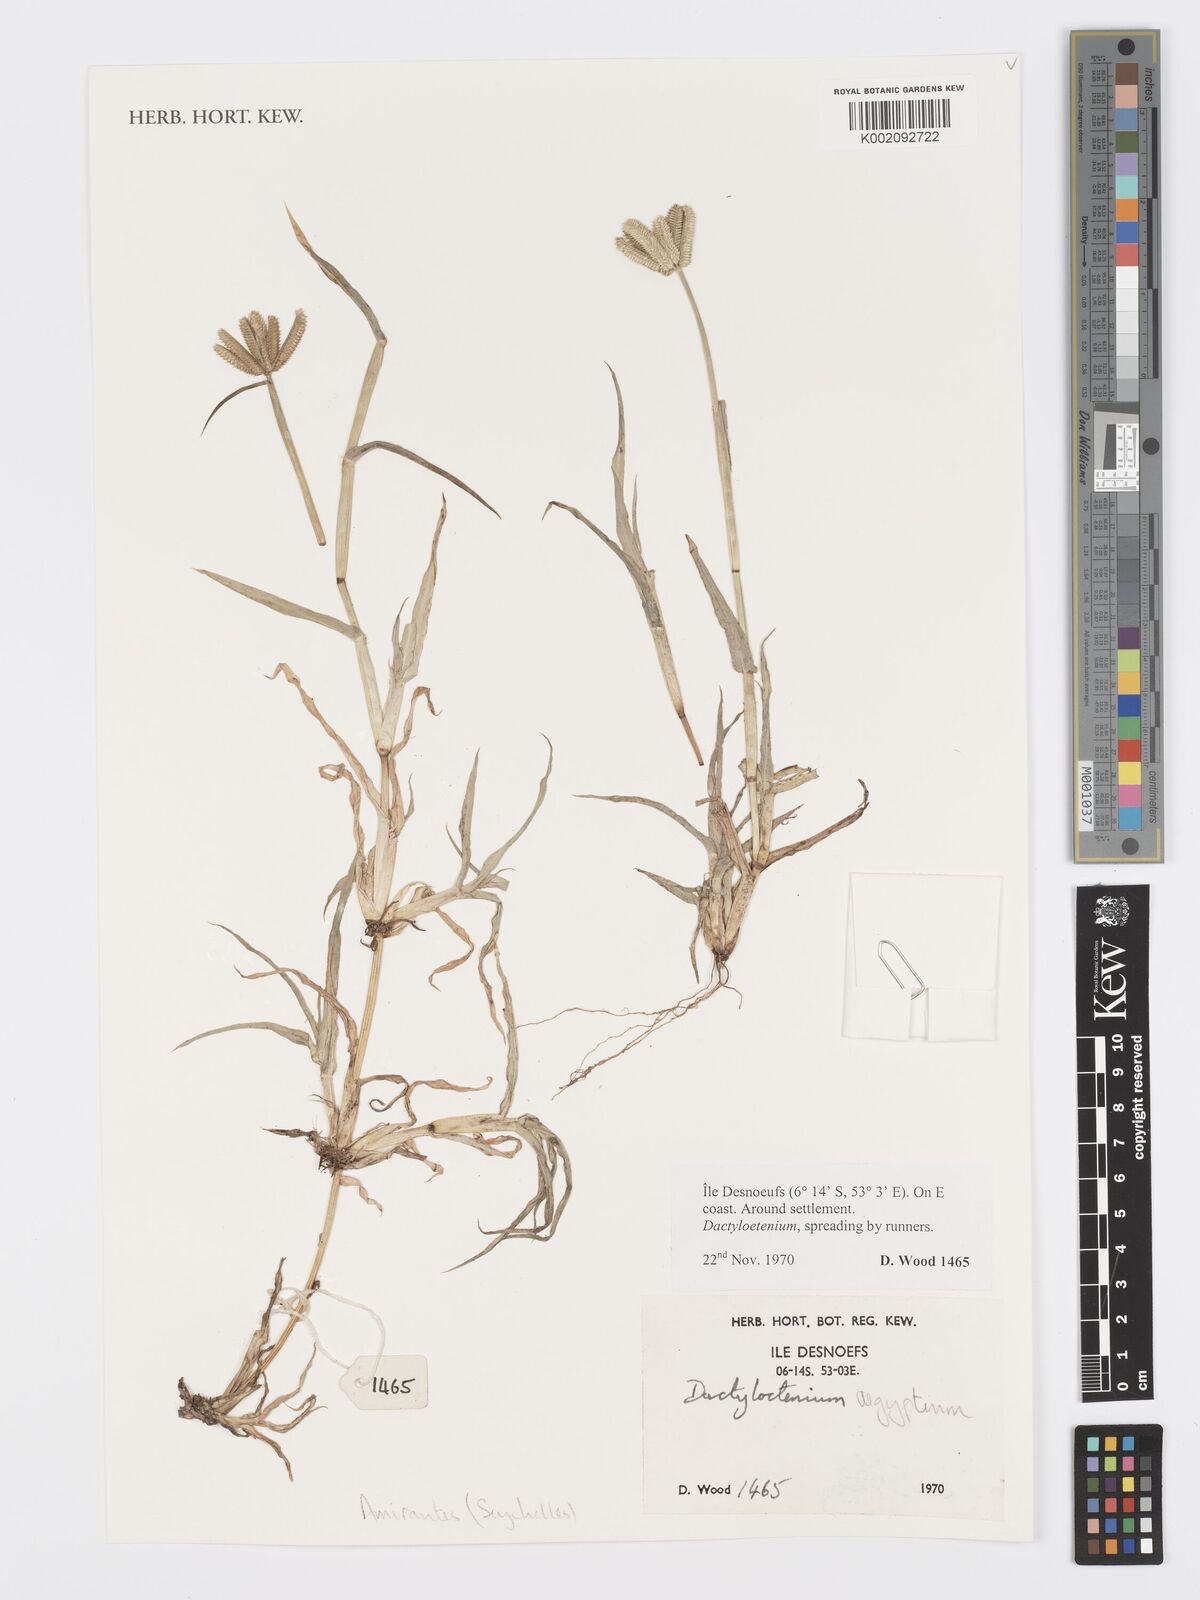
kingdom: Plantae
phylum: Tracheophyta
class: Liliopsida
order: Poales
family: Poaceae
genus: Dactyloctenium
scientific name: Dactyloctenium aegyptium
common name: Egyptian grass
